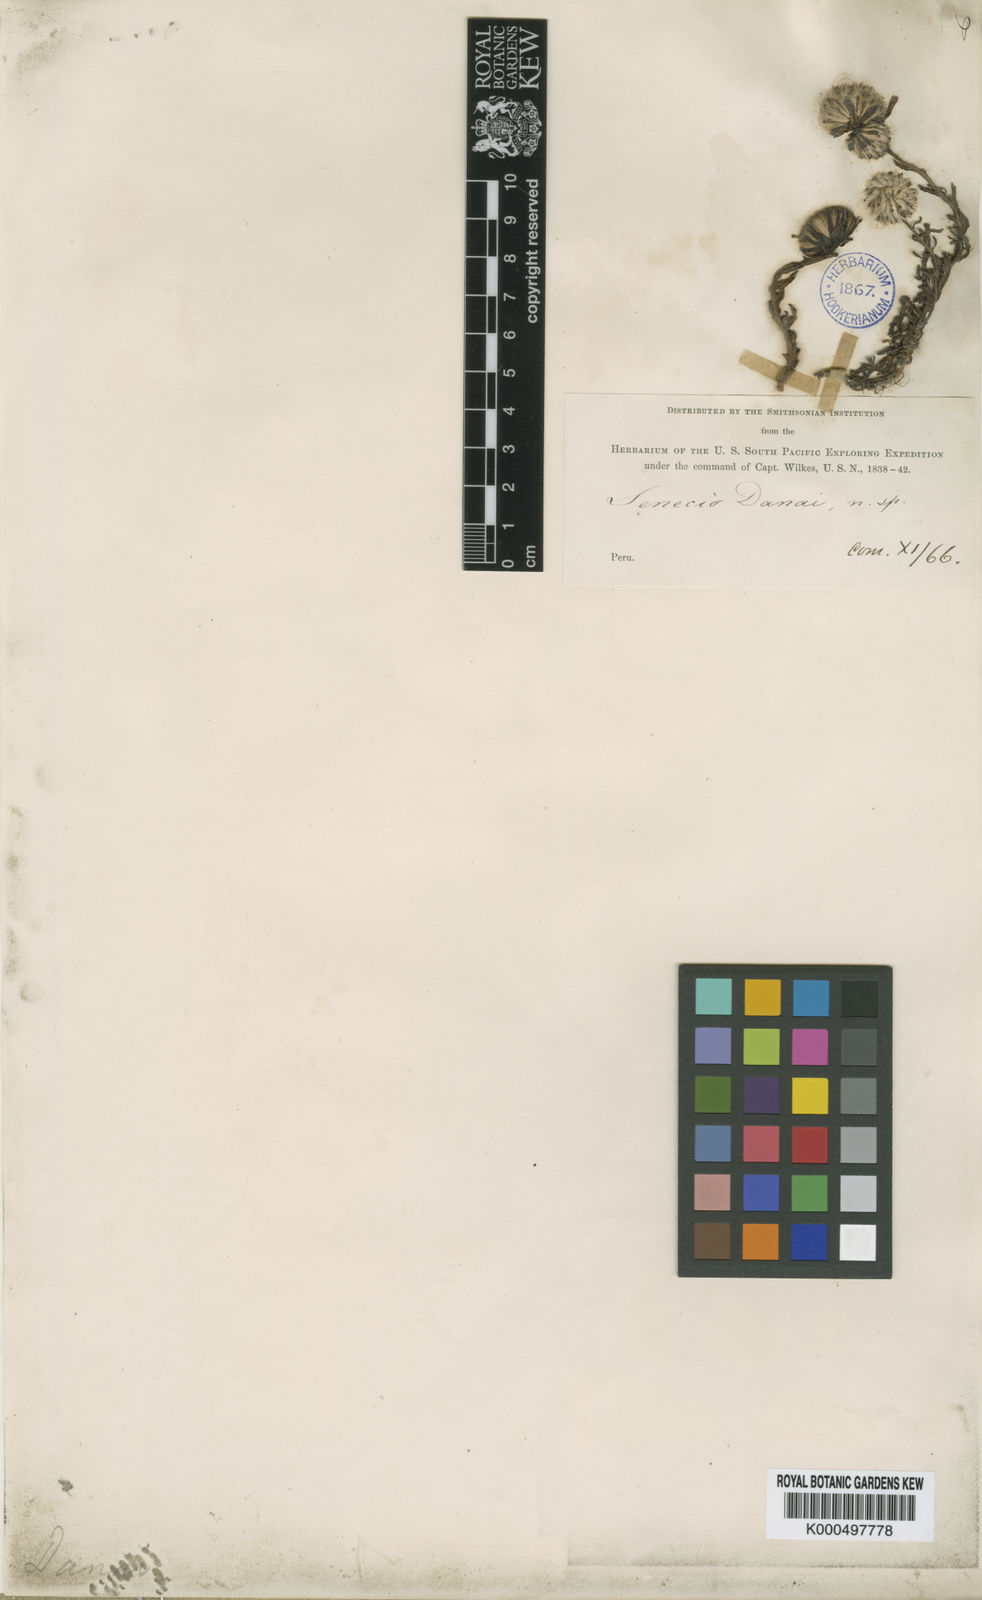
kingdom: Plantae
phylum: Tracheophyta
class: Magnoliopsida
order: Asterales
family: Asteraceae
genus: Senecio
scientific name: Senecio
